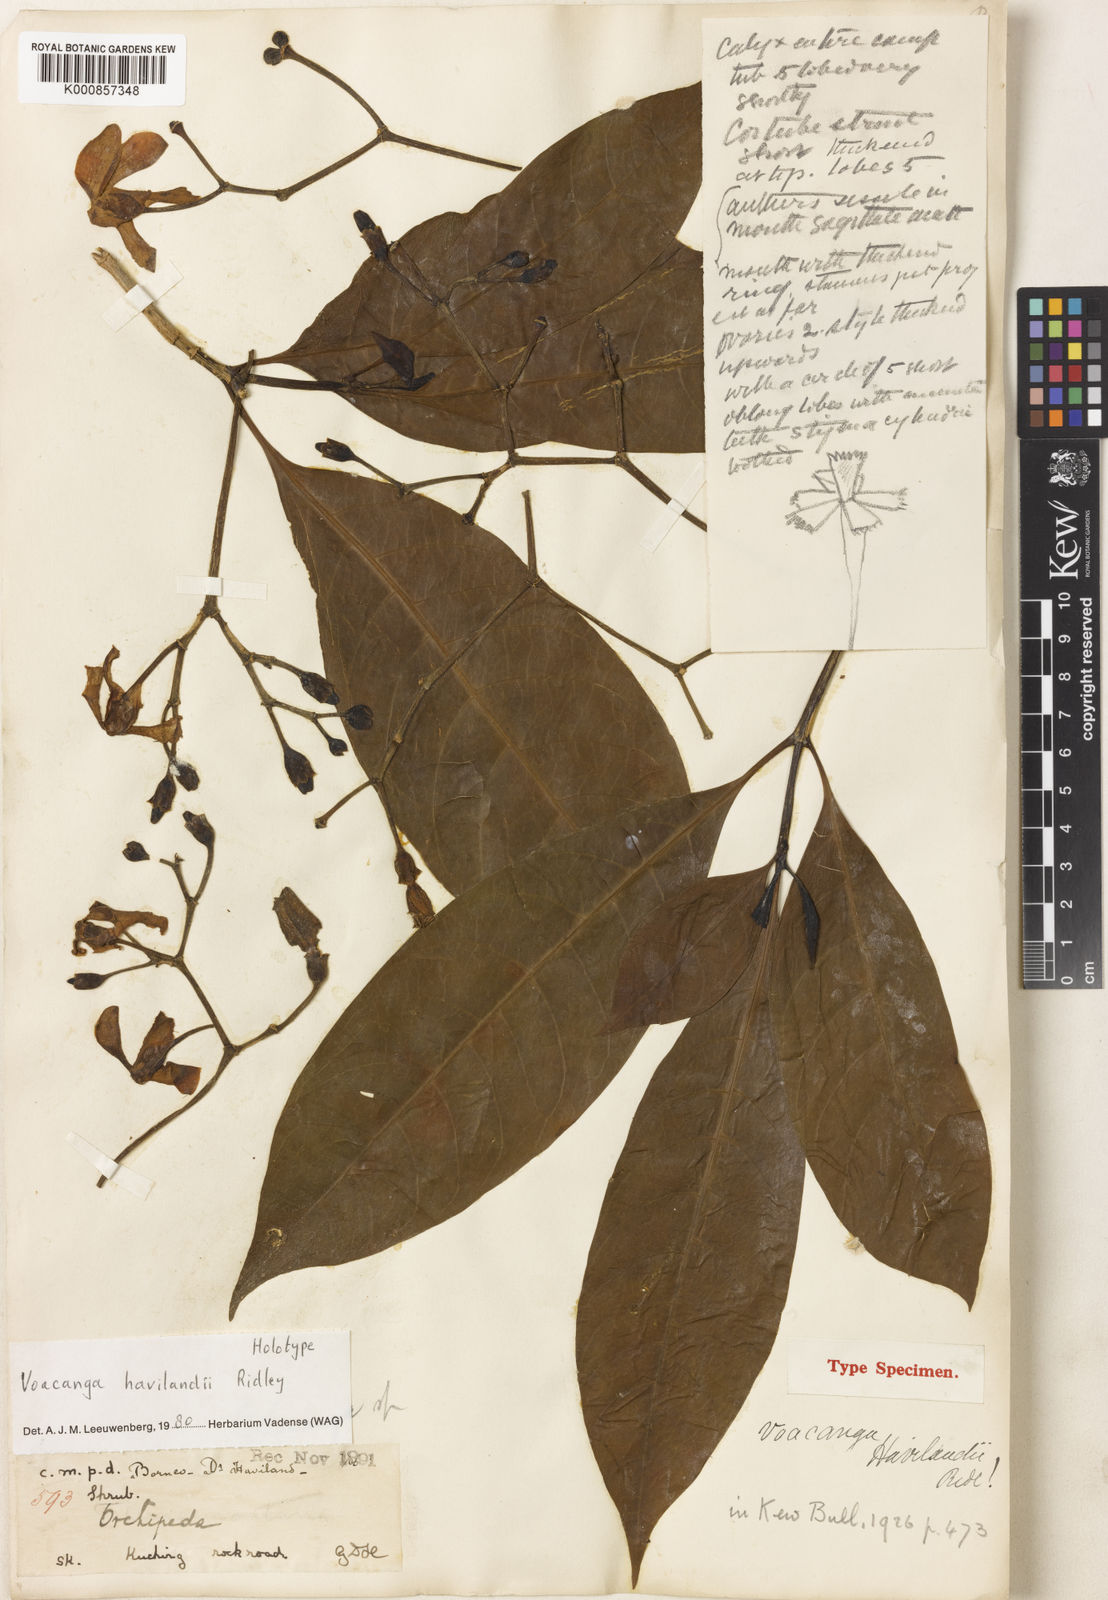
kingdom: Plantae
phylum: Tracheophyta
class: Magnoliopsida
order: Gentianales
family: Apocynaceae
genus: Voacanga
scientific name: Voacanga havilandii
